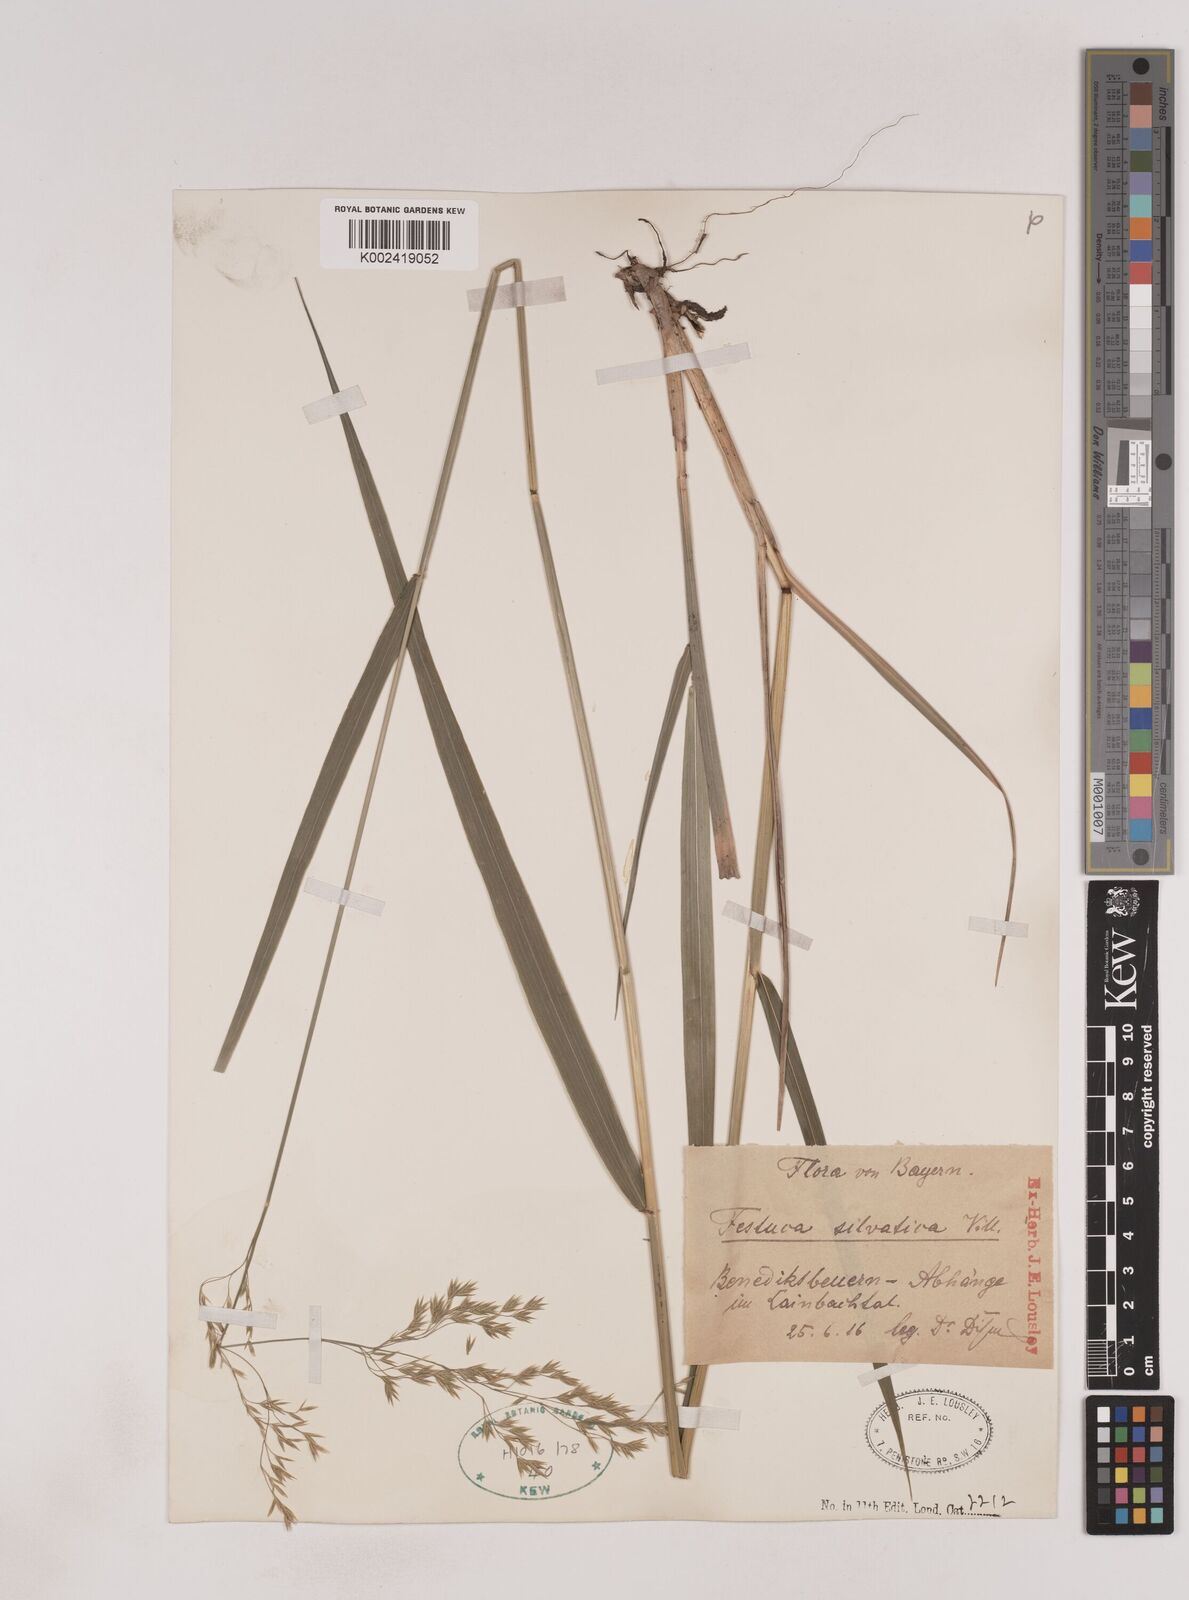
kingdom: Plantae
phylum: Tracheophyta
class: Liliopsida
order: Poales
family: Poaceae
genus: Festuca
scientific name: Festuca drymeja
